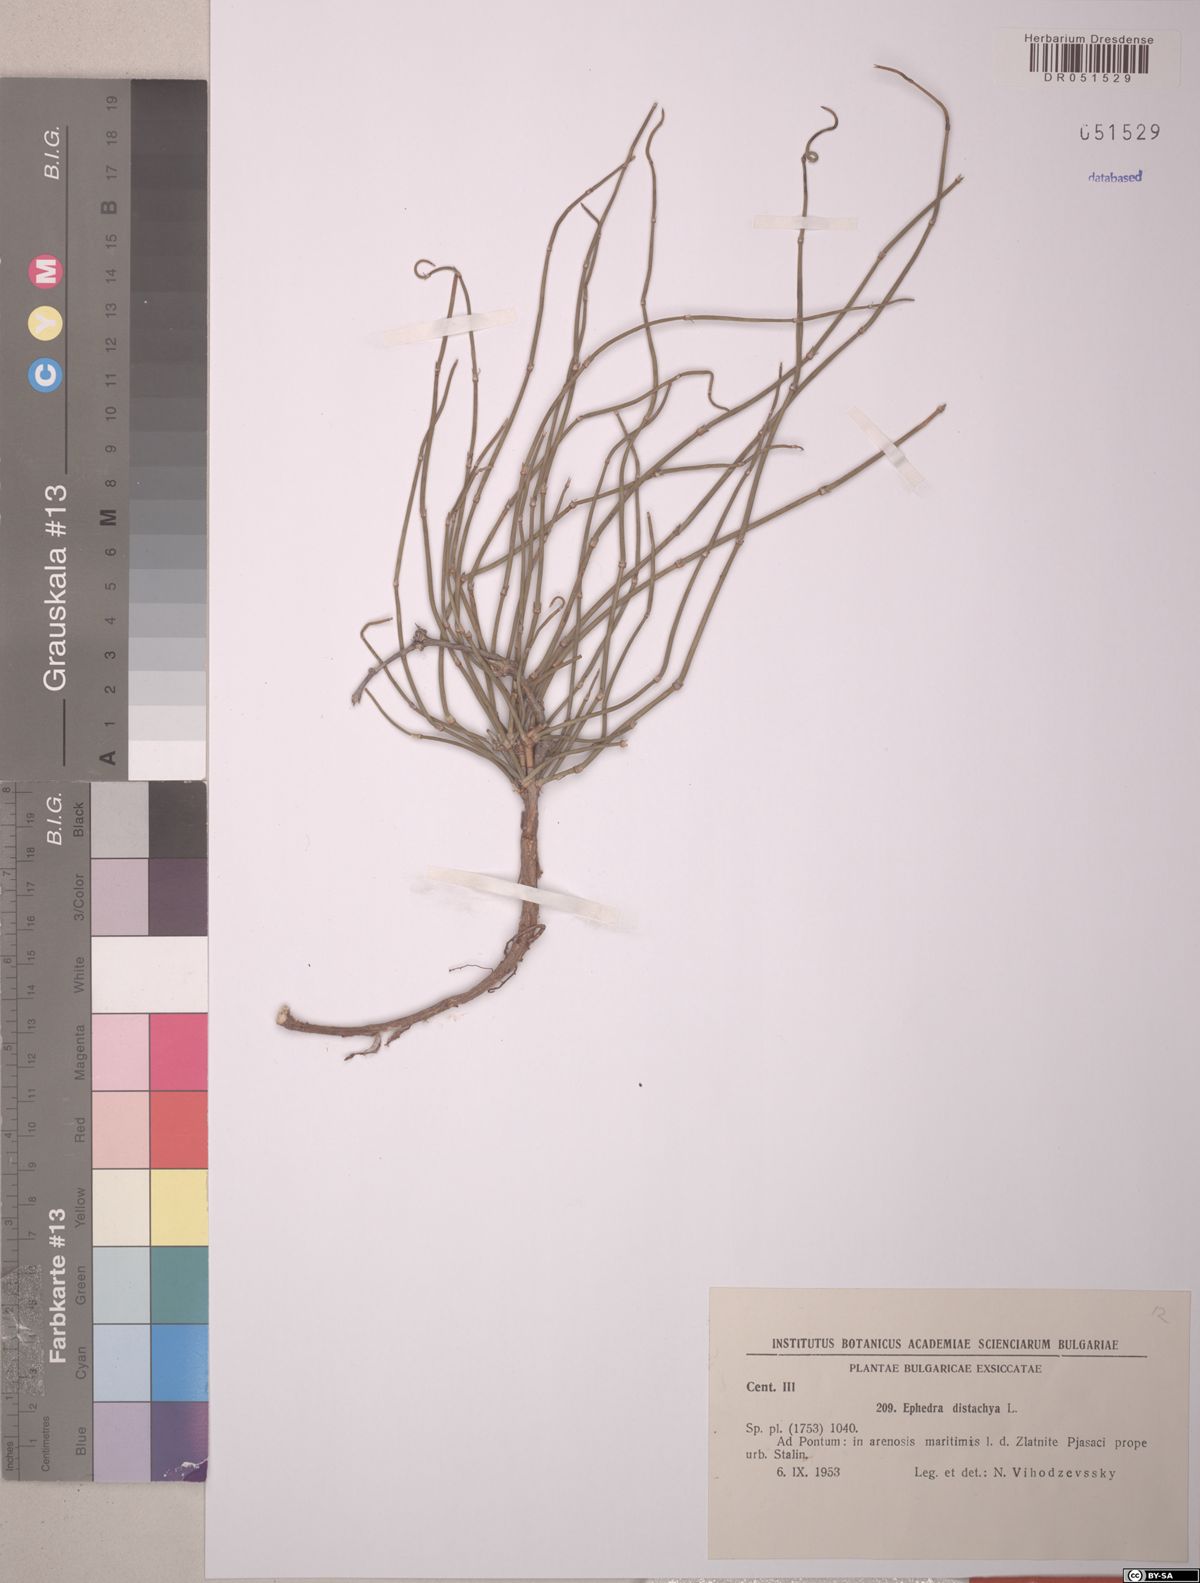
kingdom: Plantae
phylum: Tracheophyta
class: Gnetopsida
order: Ephedrales
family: Ephedraceae
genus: Ephedra
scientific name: Ephedra distachya
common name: Sea grape
